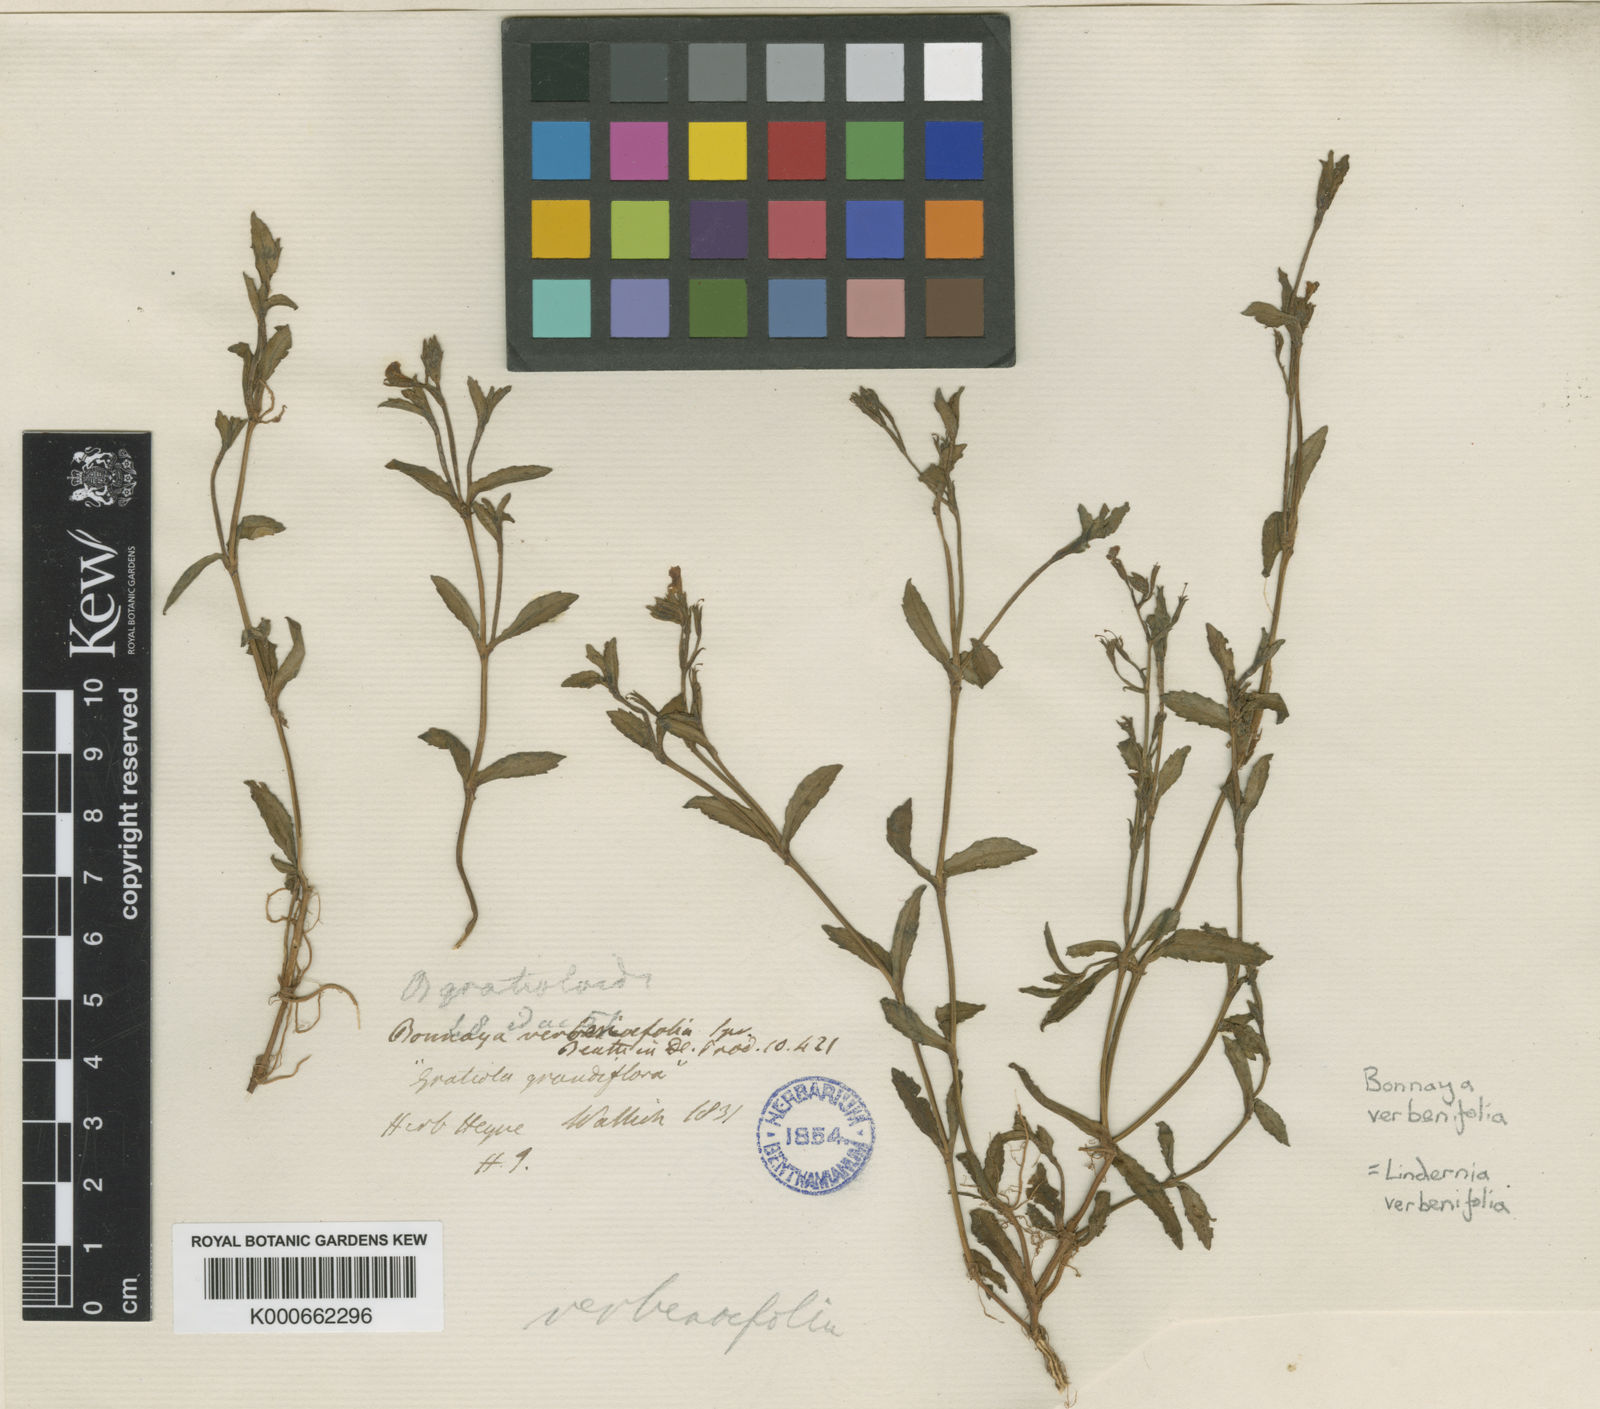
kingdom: Plantae
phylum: Tracheophyta
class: Magnoliopsida
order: Lamiales
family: Linderniaceae
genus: Bonnaya
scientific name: Bonnaya antipoda
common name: Sparrow false pimpernel
